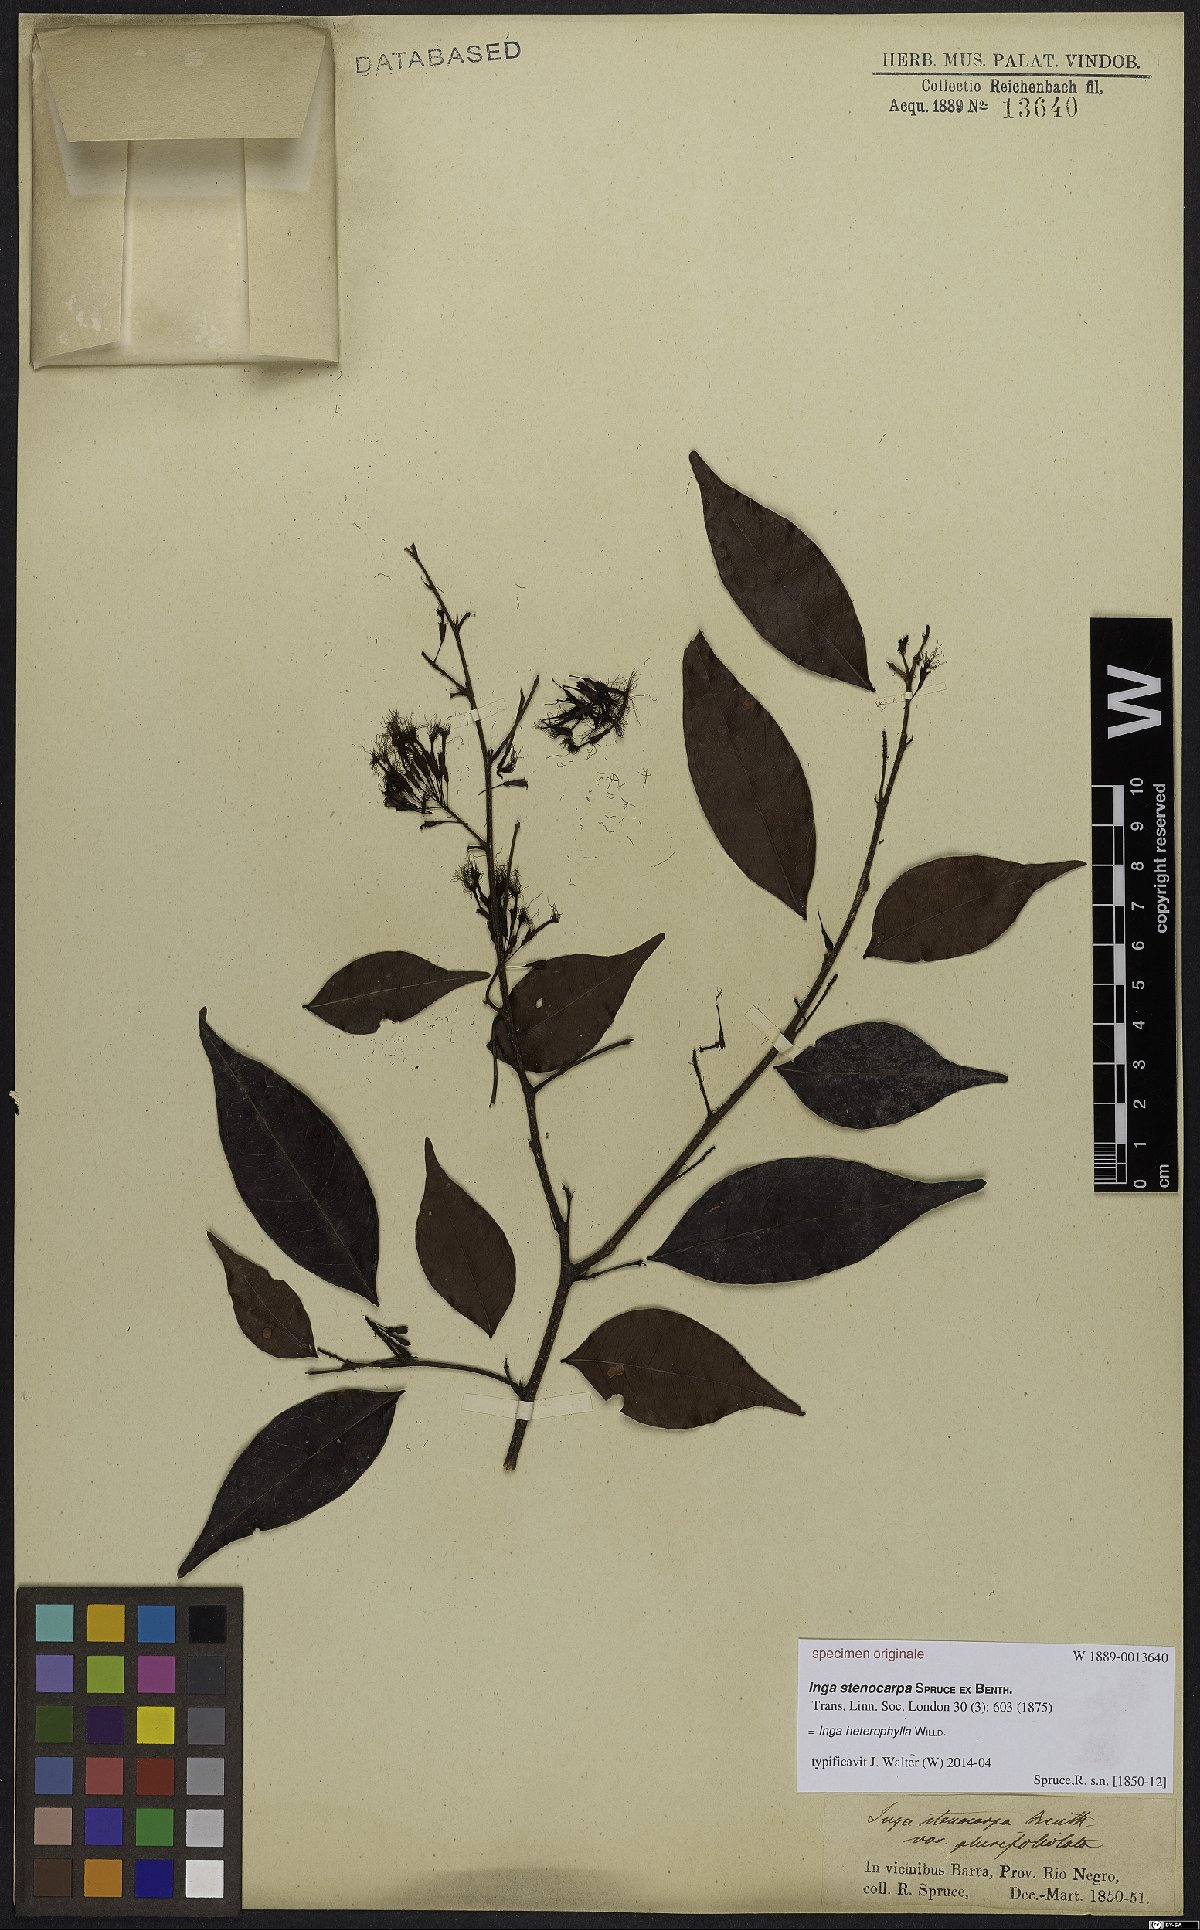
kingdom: Plantae
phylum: Tracheophyta
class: Magnoliopsida
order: Fabales
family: Fabaceae
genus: Inga
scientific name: Inga heterophylla
